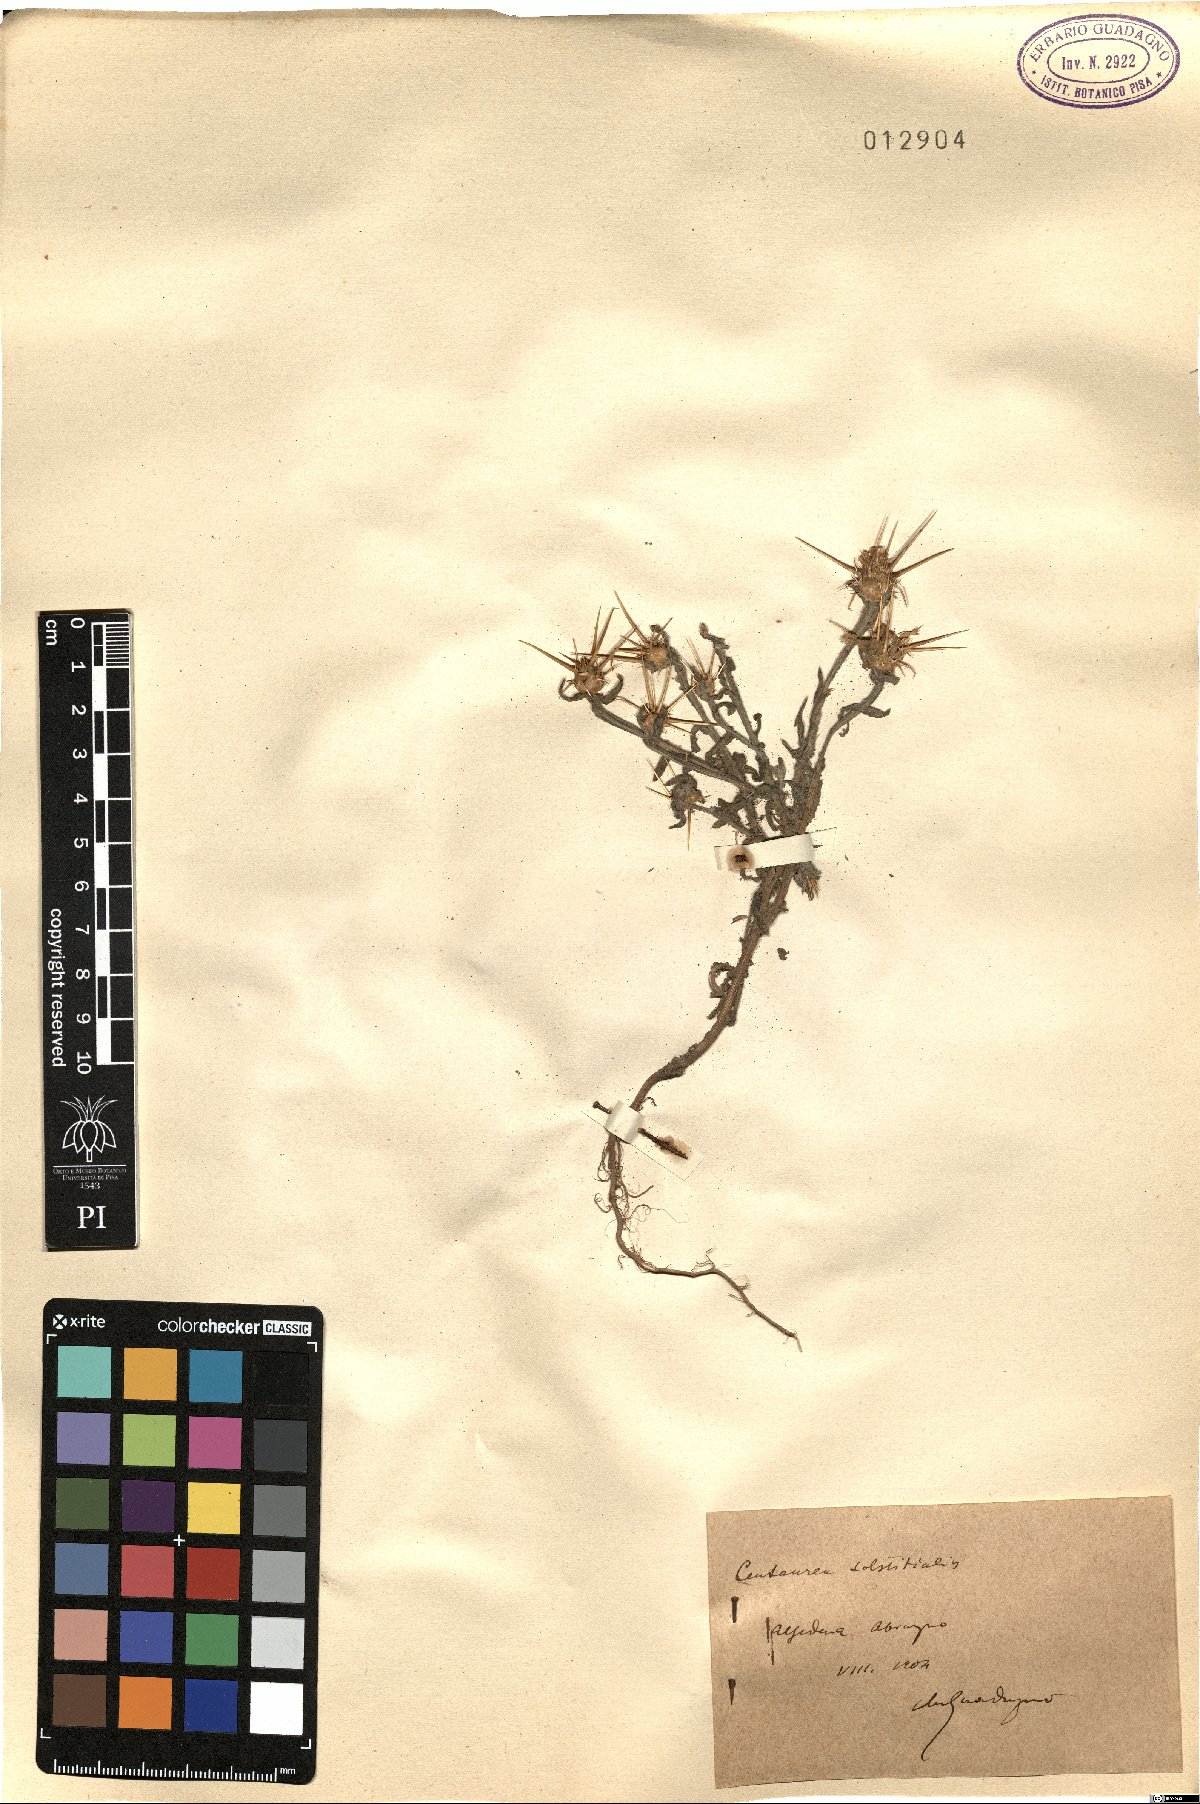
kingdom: Plantae
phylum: Tracheophyta
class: Magnoliopsida
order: Asterales
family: Asteraceae
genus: Centaurea
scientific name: Centaurea solstitialis
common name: Yellow star-thistle
